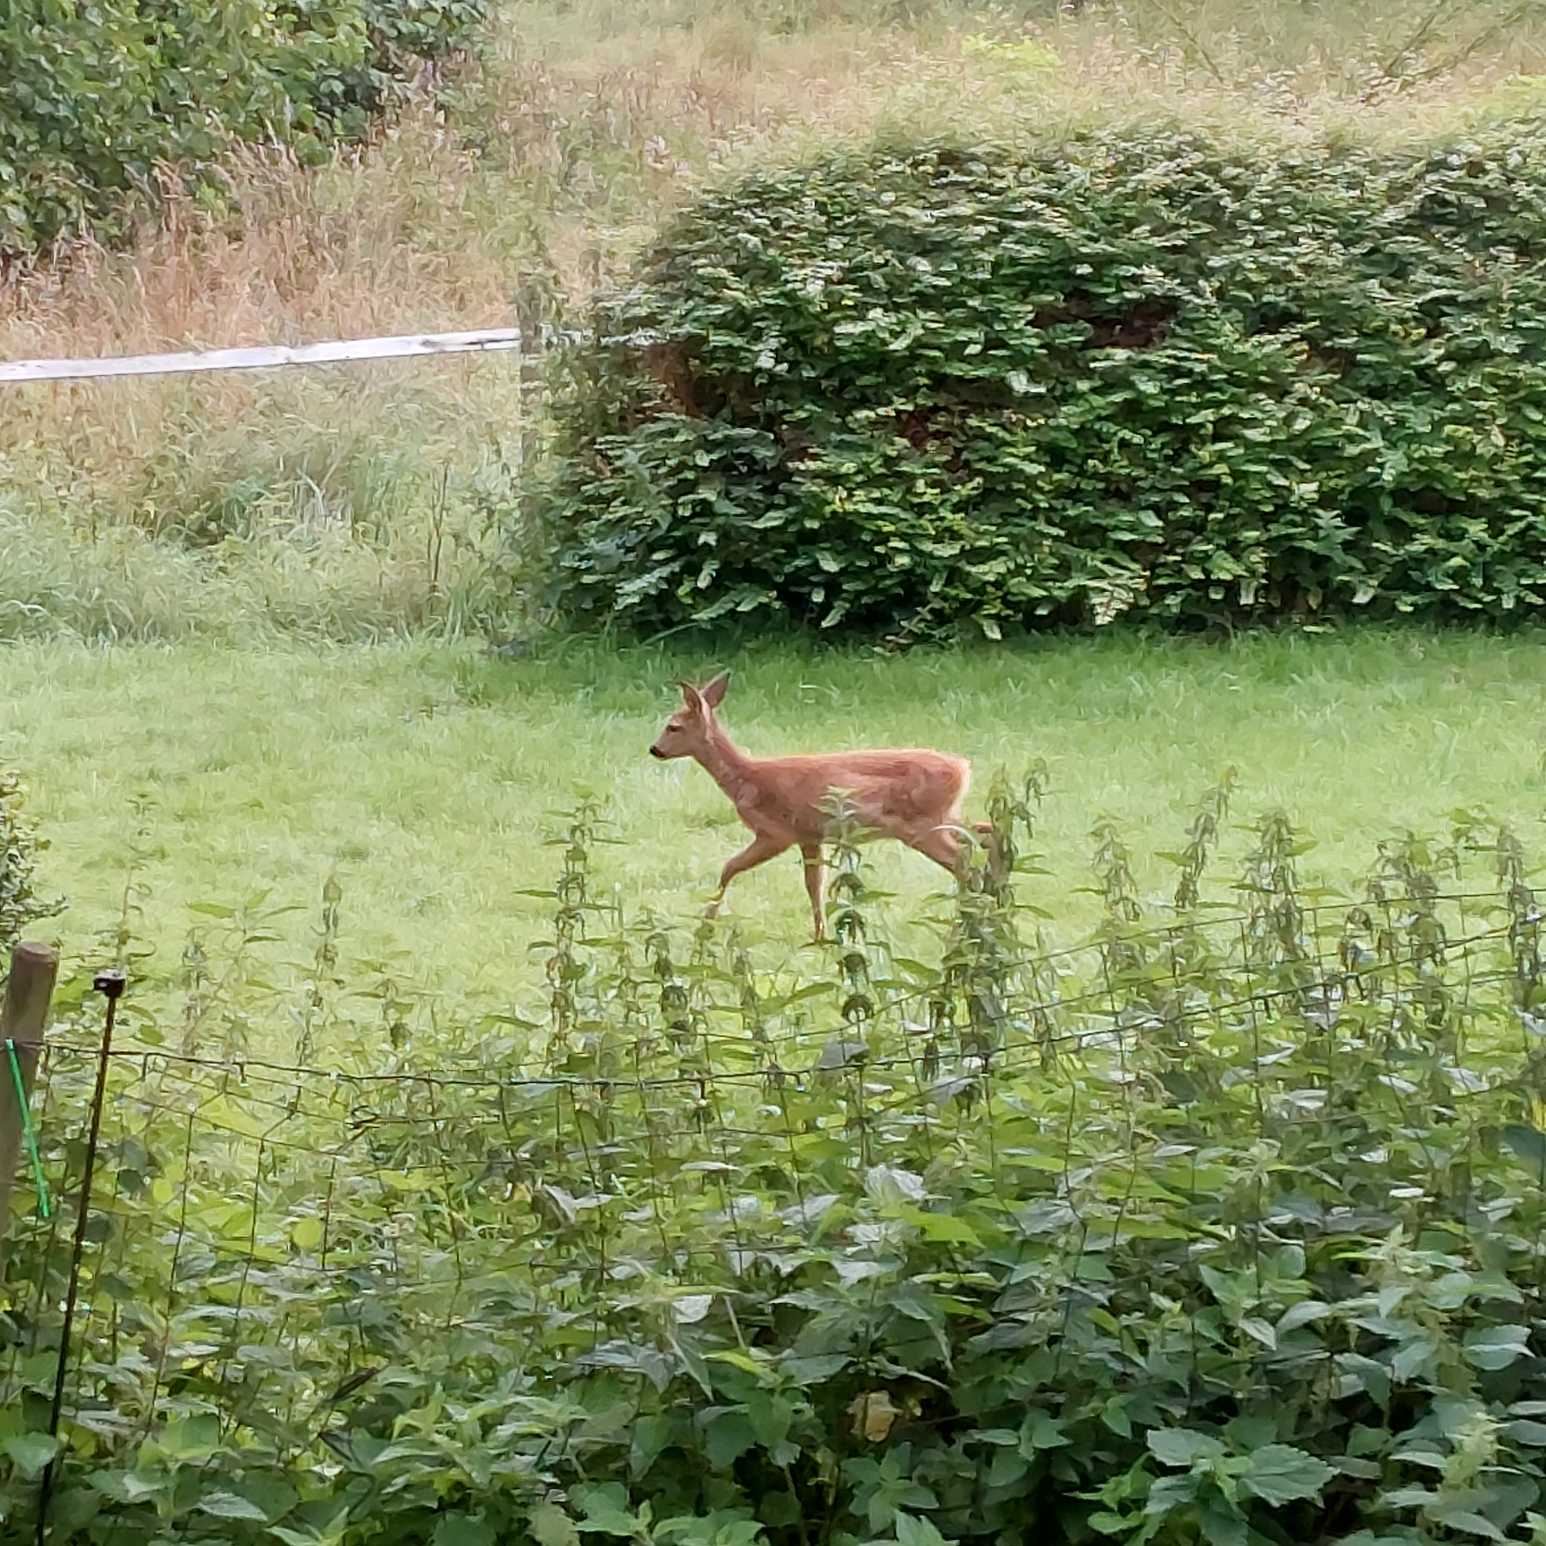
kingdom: Animalia
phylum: Chordata
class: Mammalia
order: Artiodactyla
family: Cervidae
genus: Capreolus
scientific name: Capreolus capreolus
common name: Rådyr
